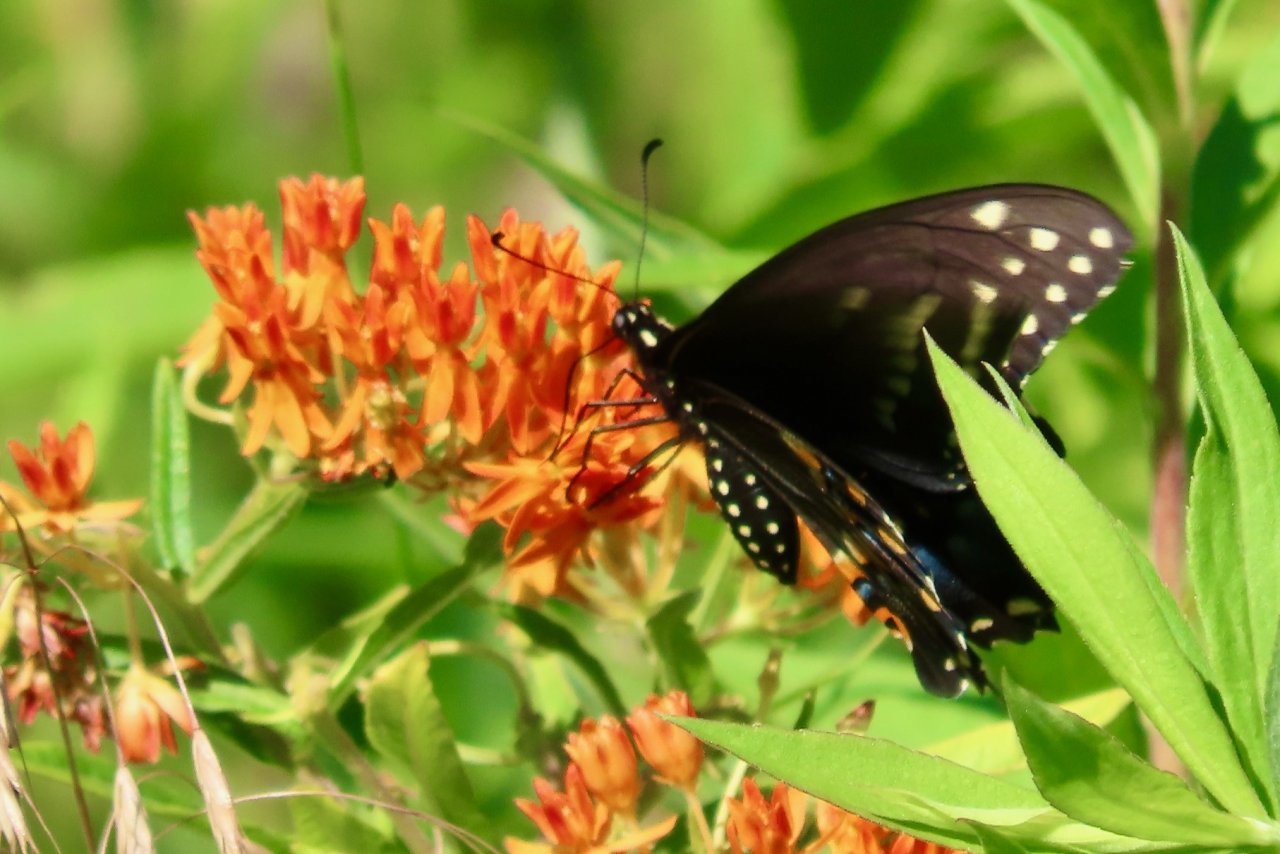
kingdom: Animalia
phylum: Arthropoda
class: Insecta
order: Lepidoptera
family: Papilionidae
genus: Papilio
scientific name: Papilio polyxenes
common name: Black Swallowtail
